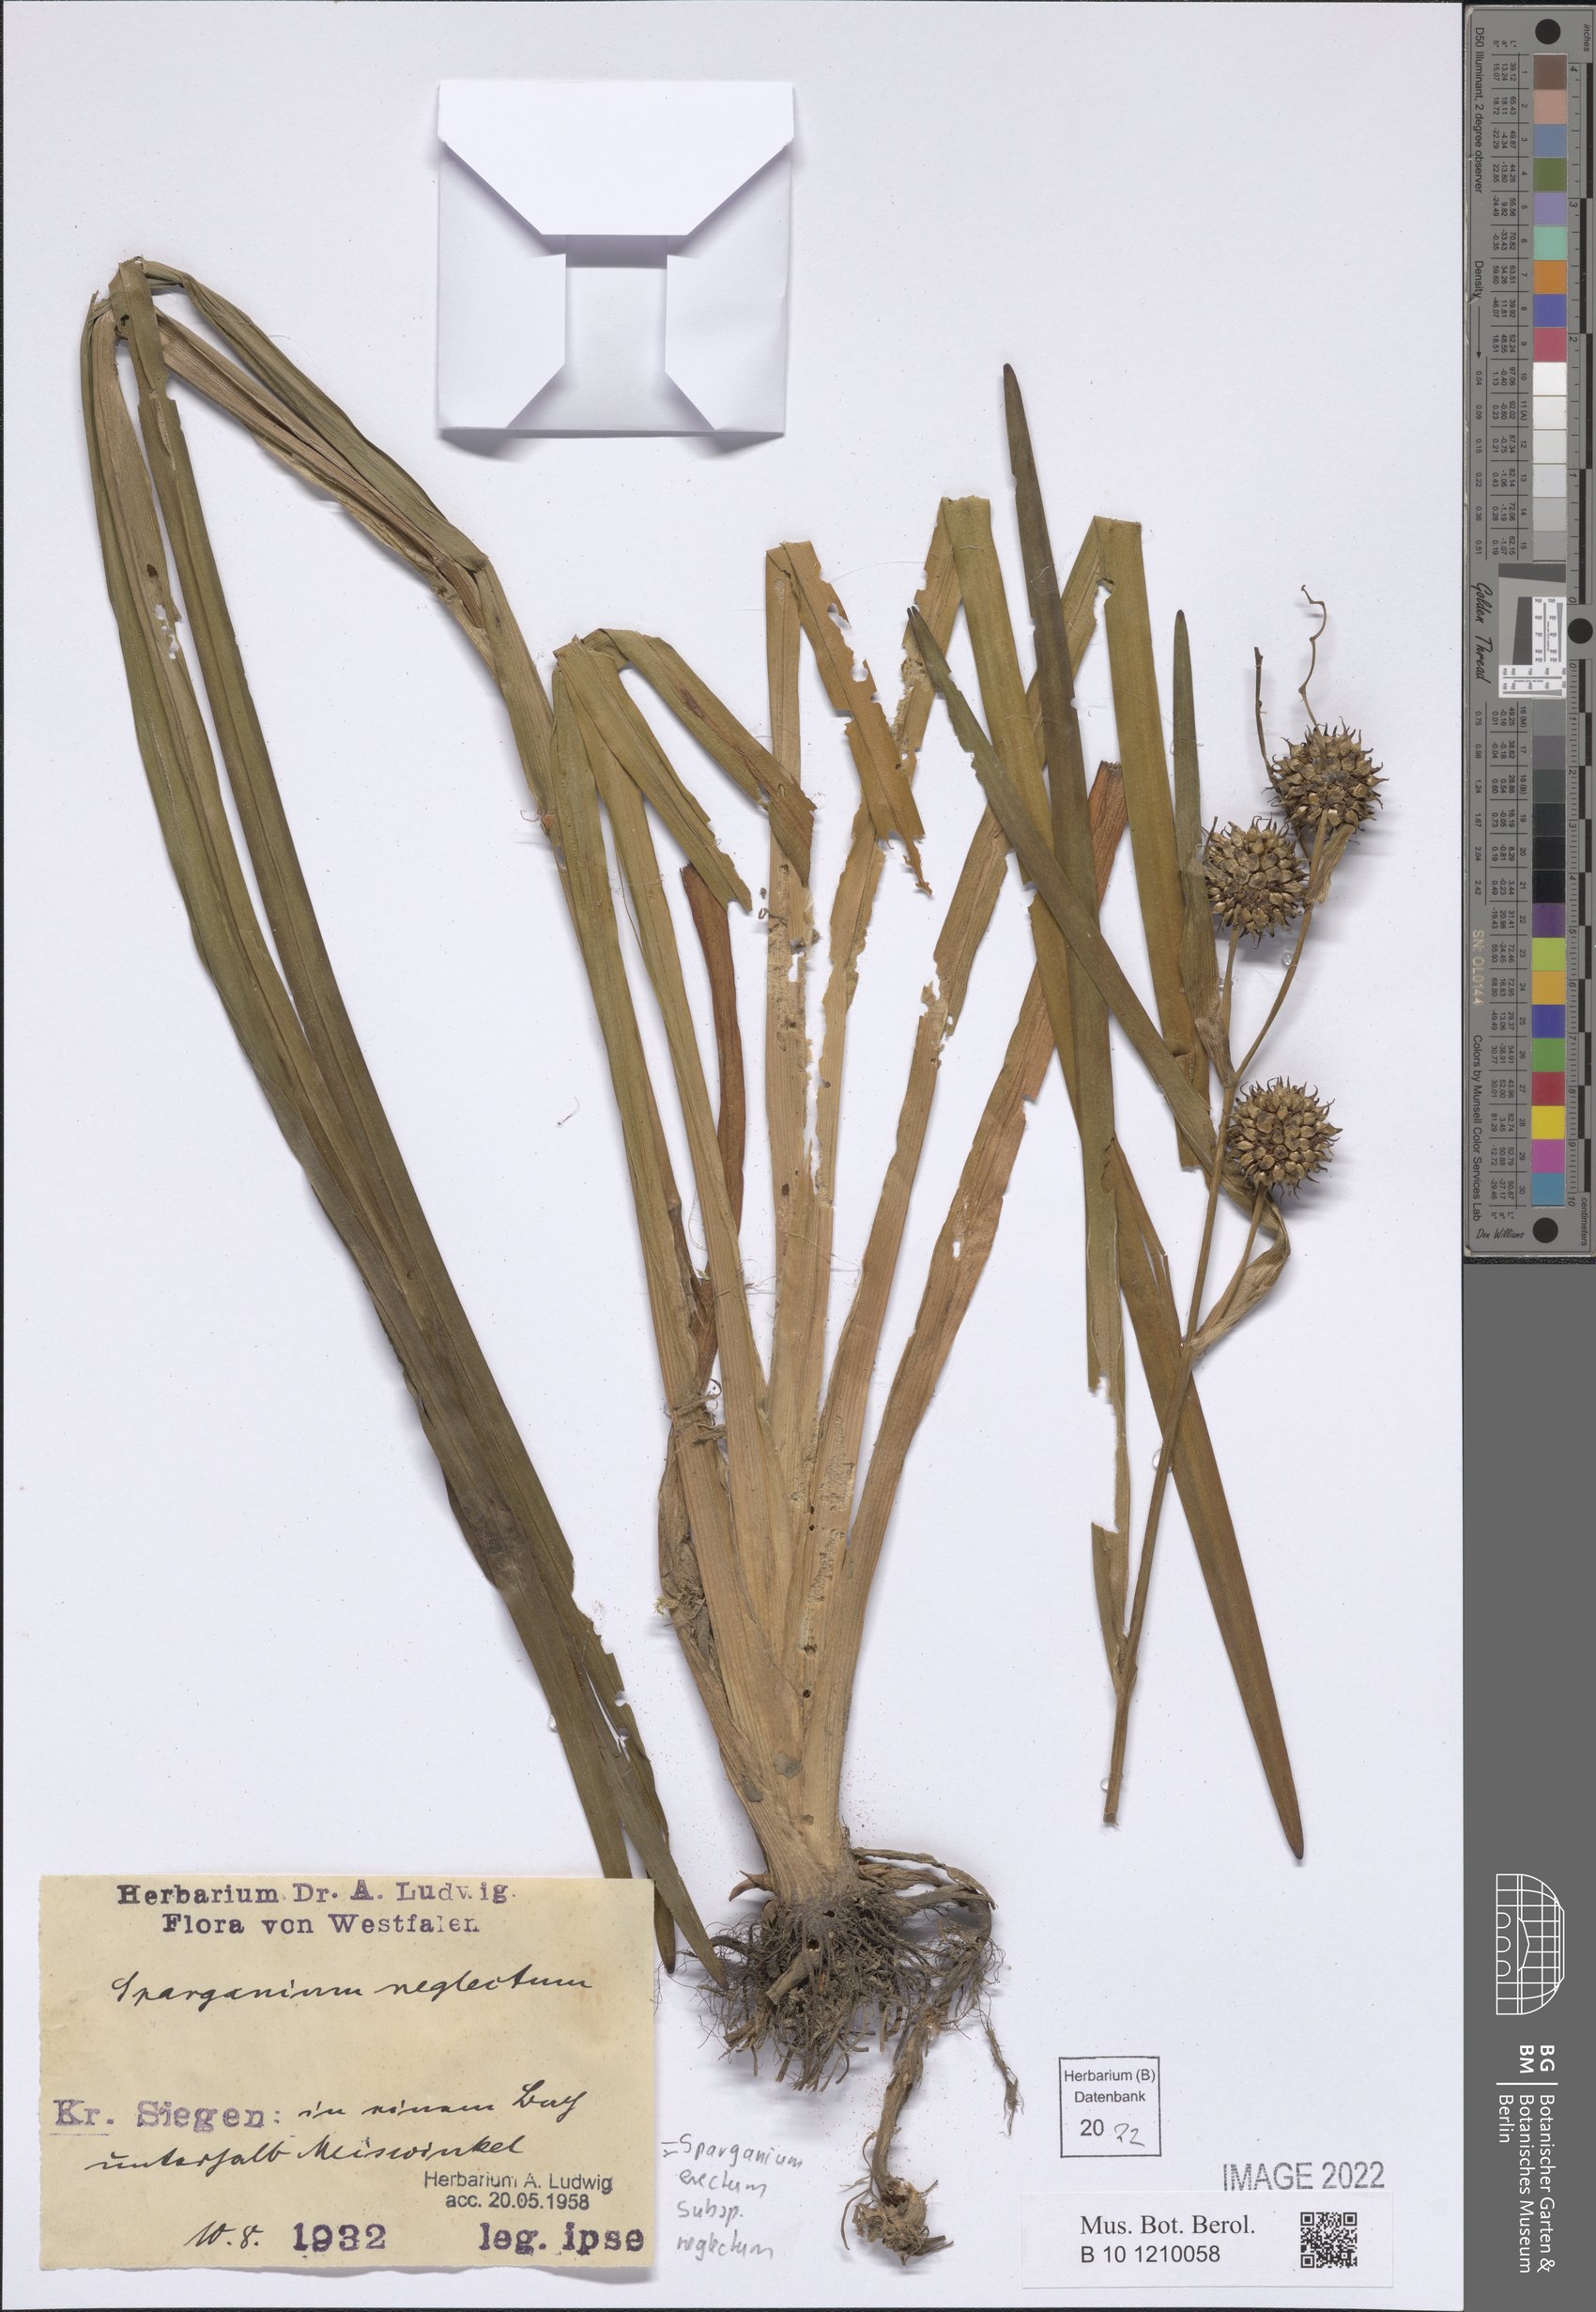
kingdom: Plantae
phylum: Tracheophyta
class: Liliopsida
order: Poales
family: Typhaceae
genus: Sparganium
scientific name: Sparganium erectum
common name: Branched bur-reed
